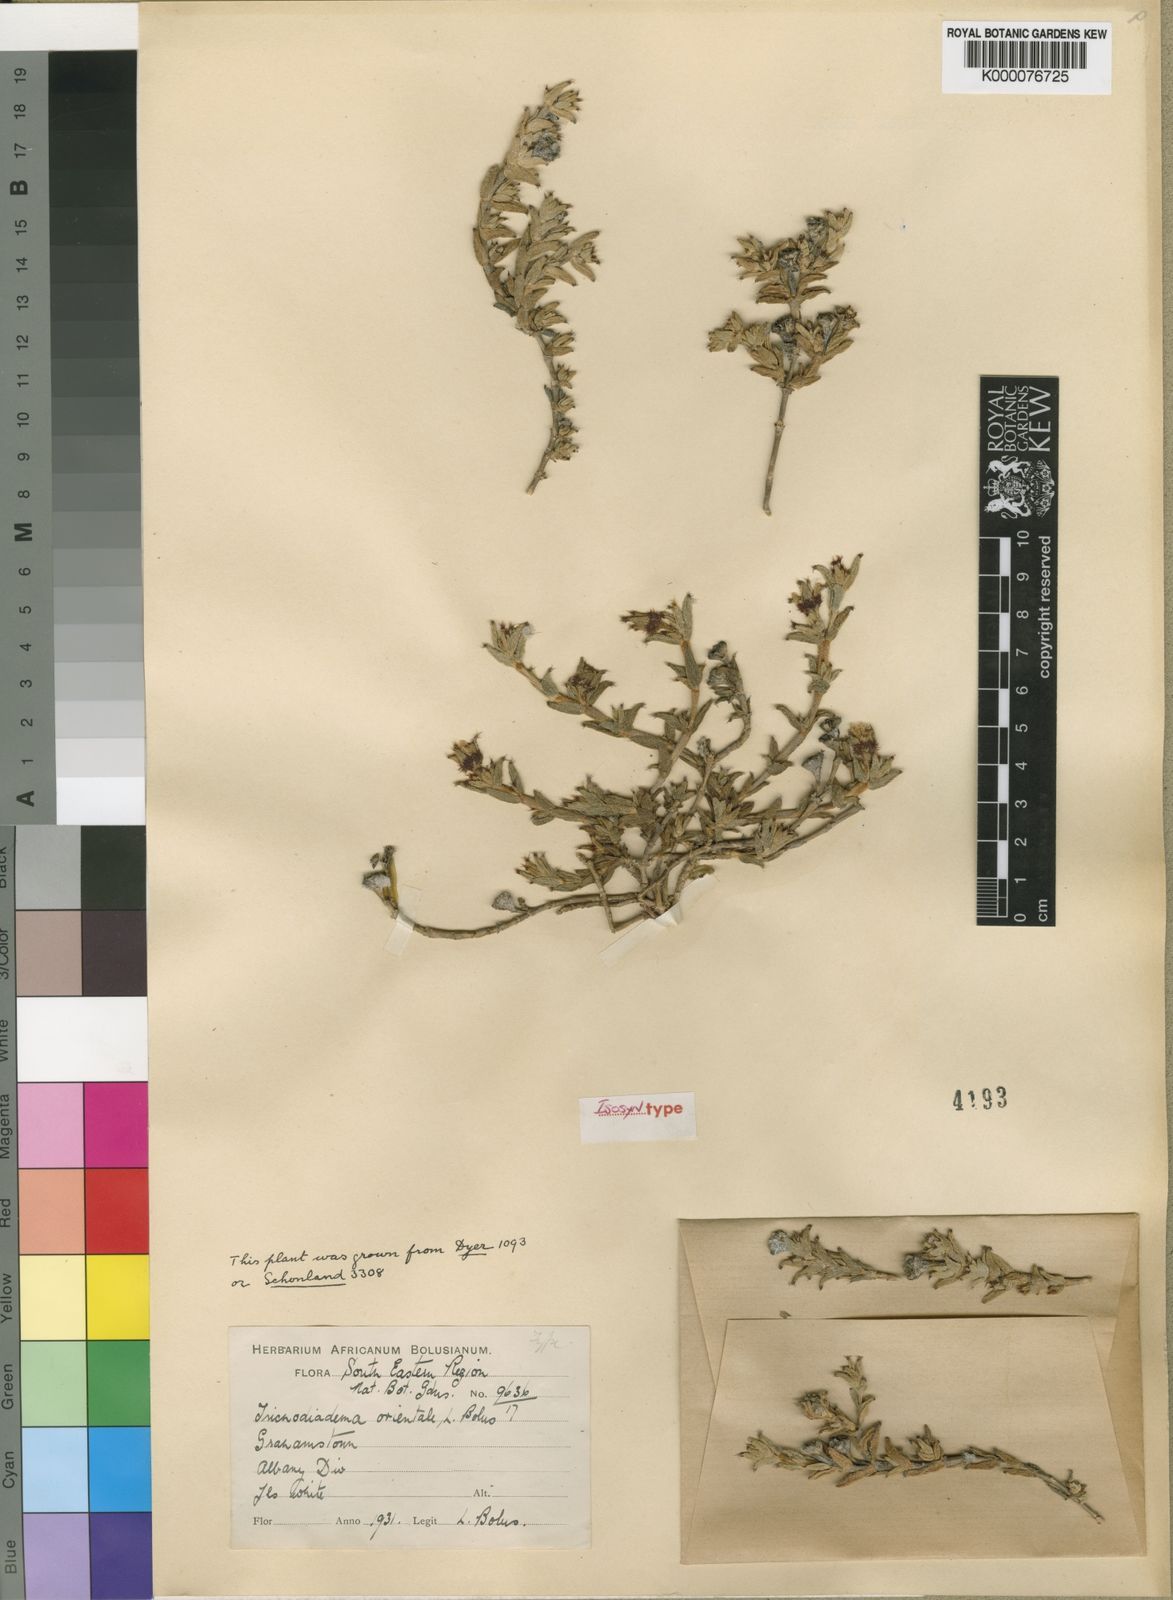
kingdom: Plantae
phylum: Tracheophyta
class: Magnoliopsida
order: Caryophyllales
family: Aizoaceae
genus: Trichodiadema
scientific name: Trichodiadema orientale
